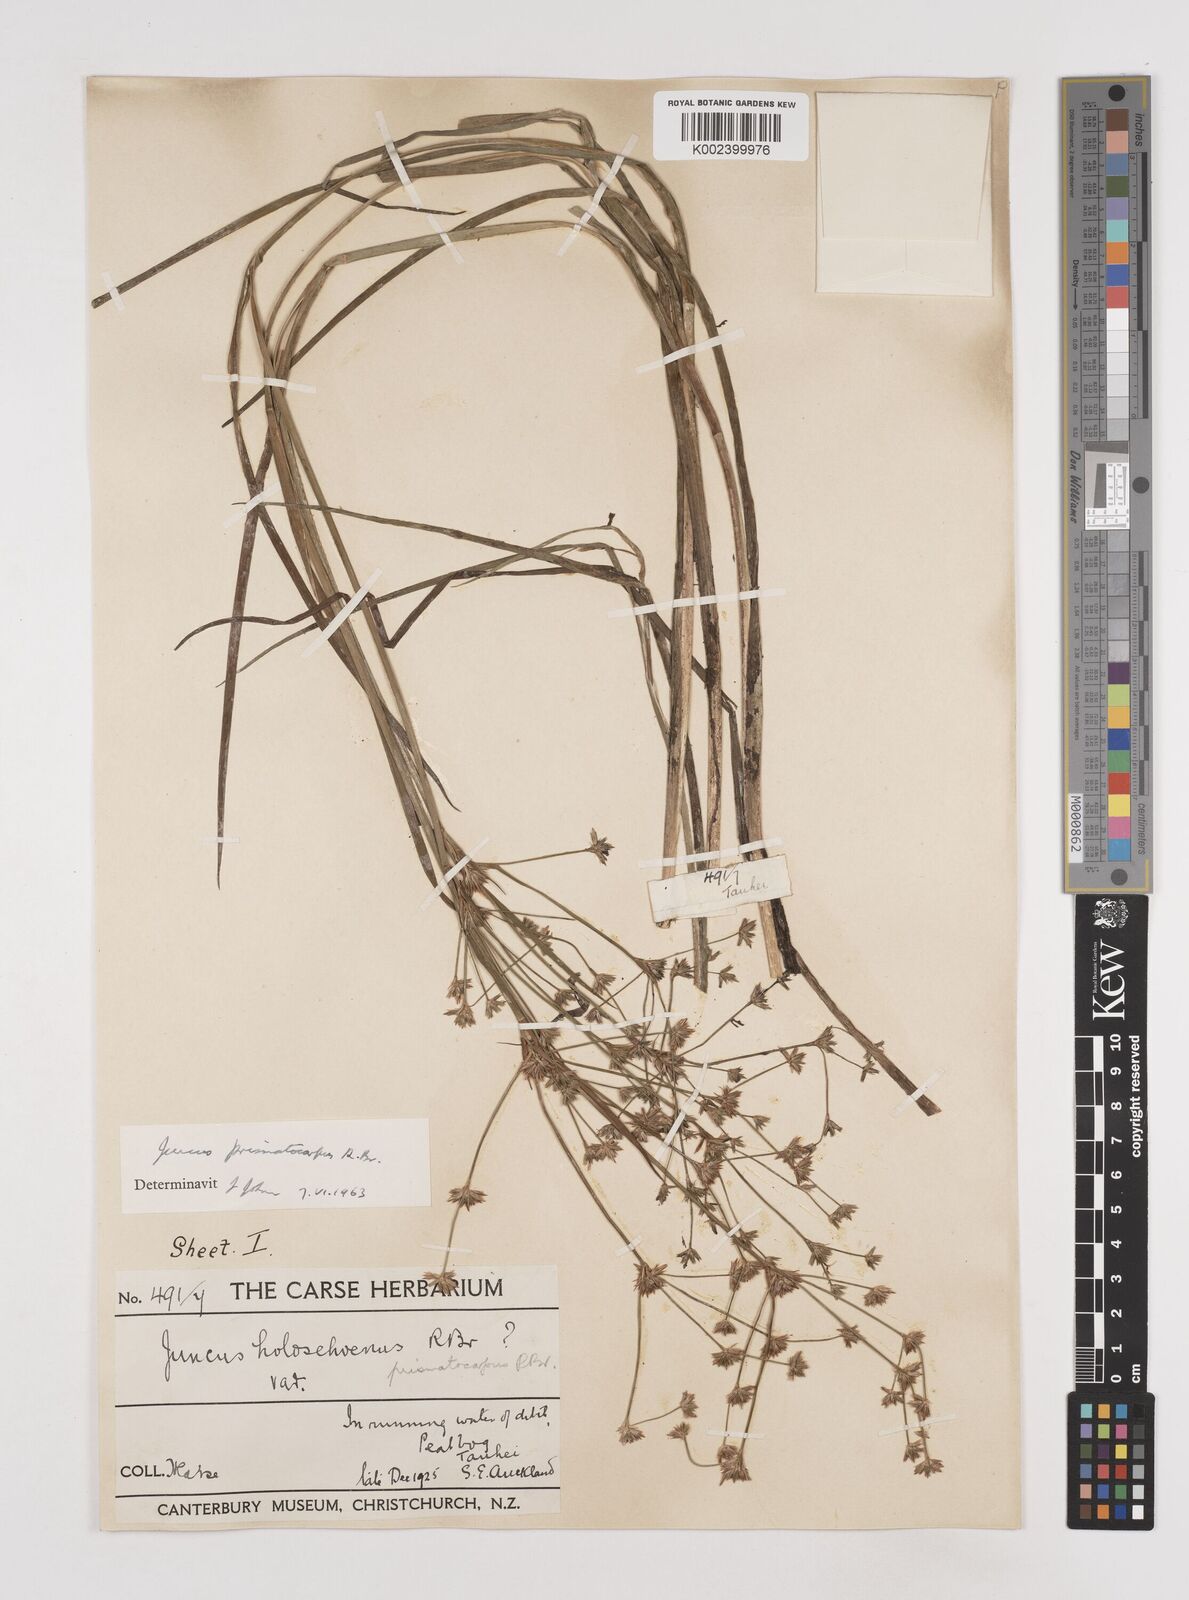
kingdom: Plantae
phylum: Tracheophyta
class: Liliopsida
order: Poales
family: Juncaceae
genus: Juncus
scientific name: Juncus prismatocarpus
